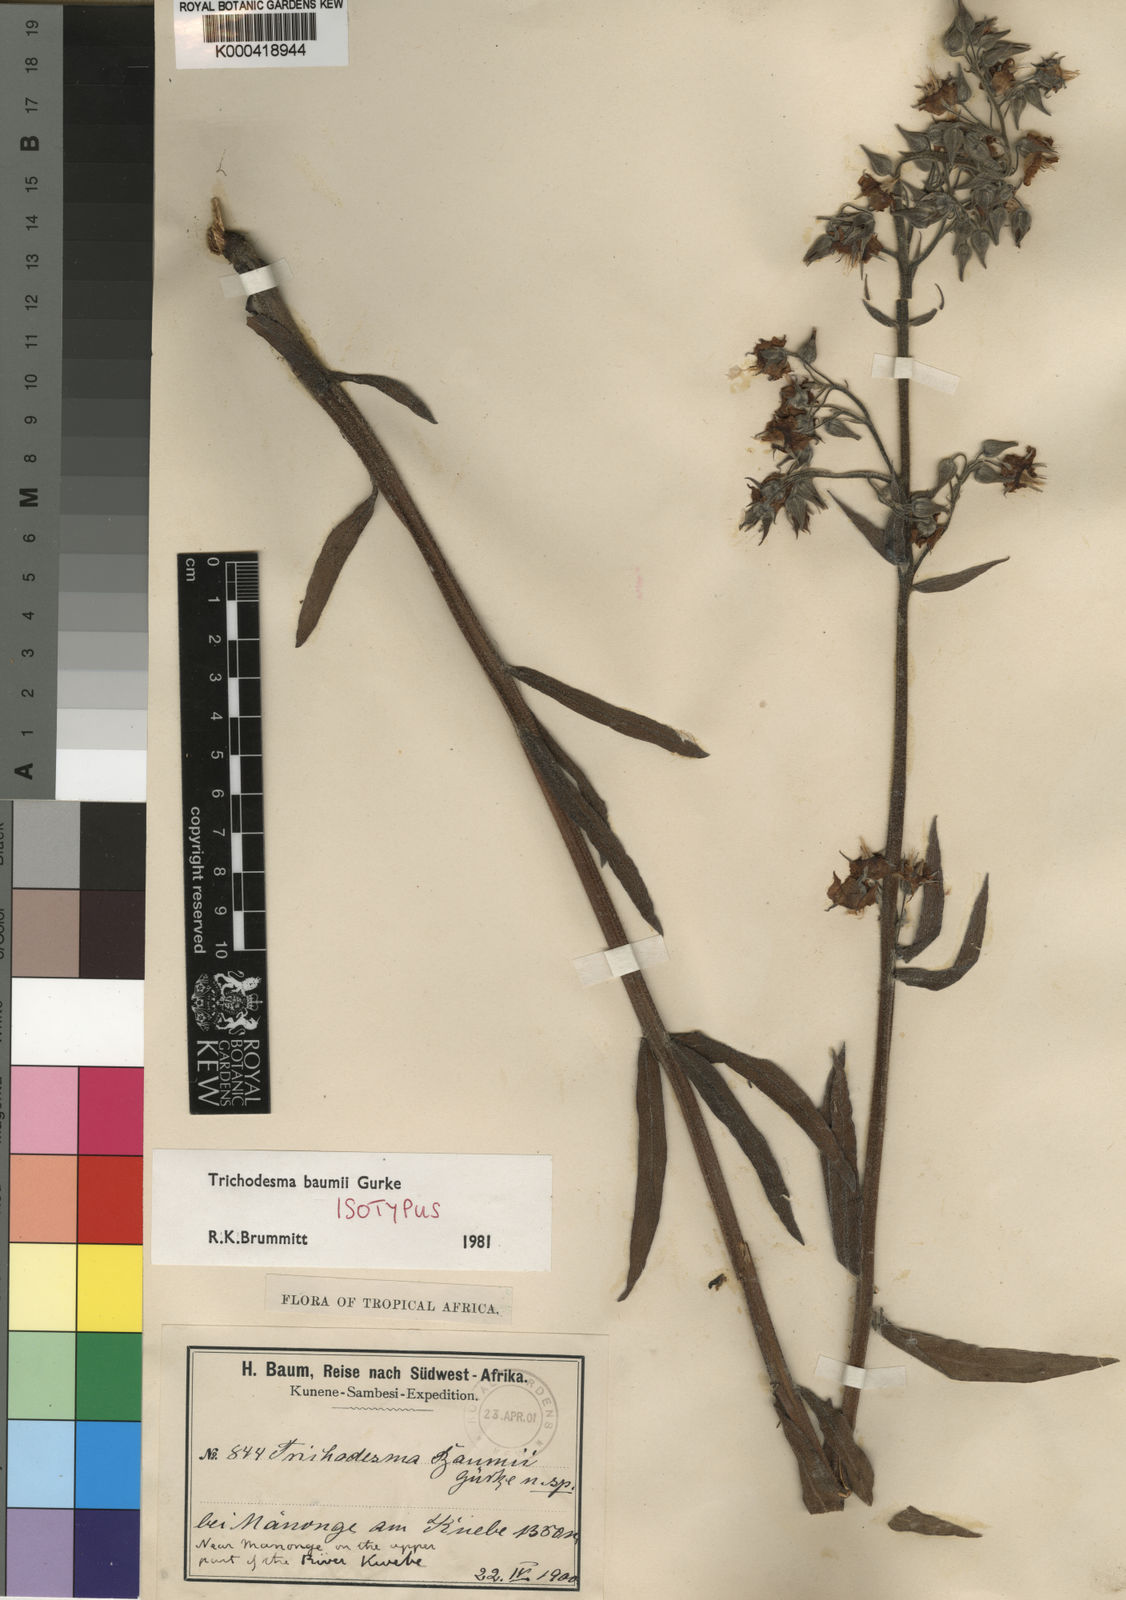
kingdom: Plantae
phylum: Tracheophyta
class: Magnoliopsida
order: Boraginales
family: Boraginaceae
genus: Trichodesma
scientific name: Trichodesma
